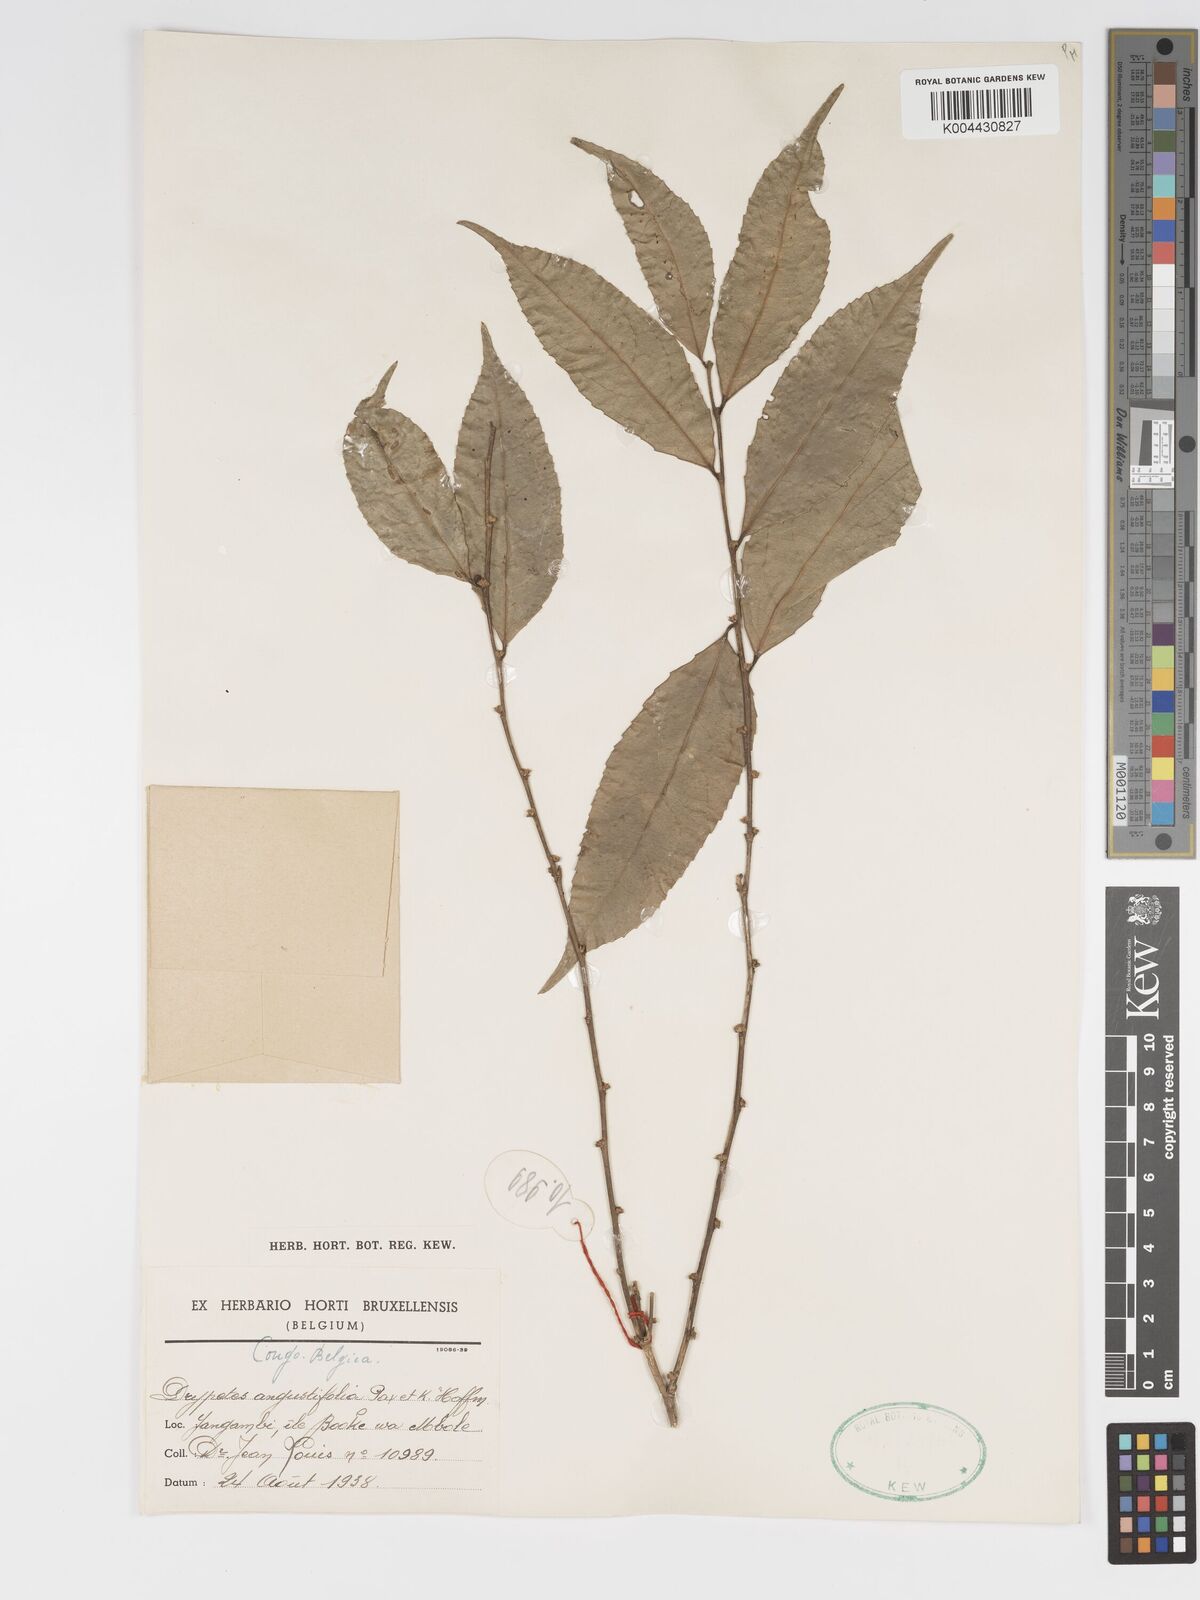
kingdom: Plantae
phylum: Tracheophyta
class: Magnoliopsida
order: Malpighiales
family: Putranjivaceae
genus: Drypetes
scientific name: Drypetes angustifolia
